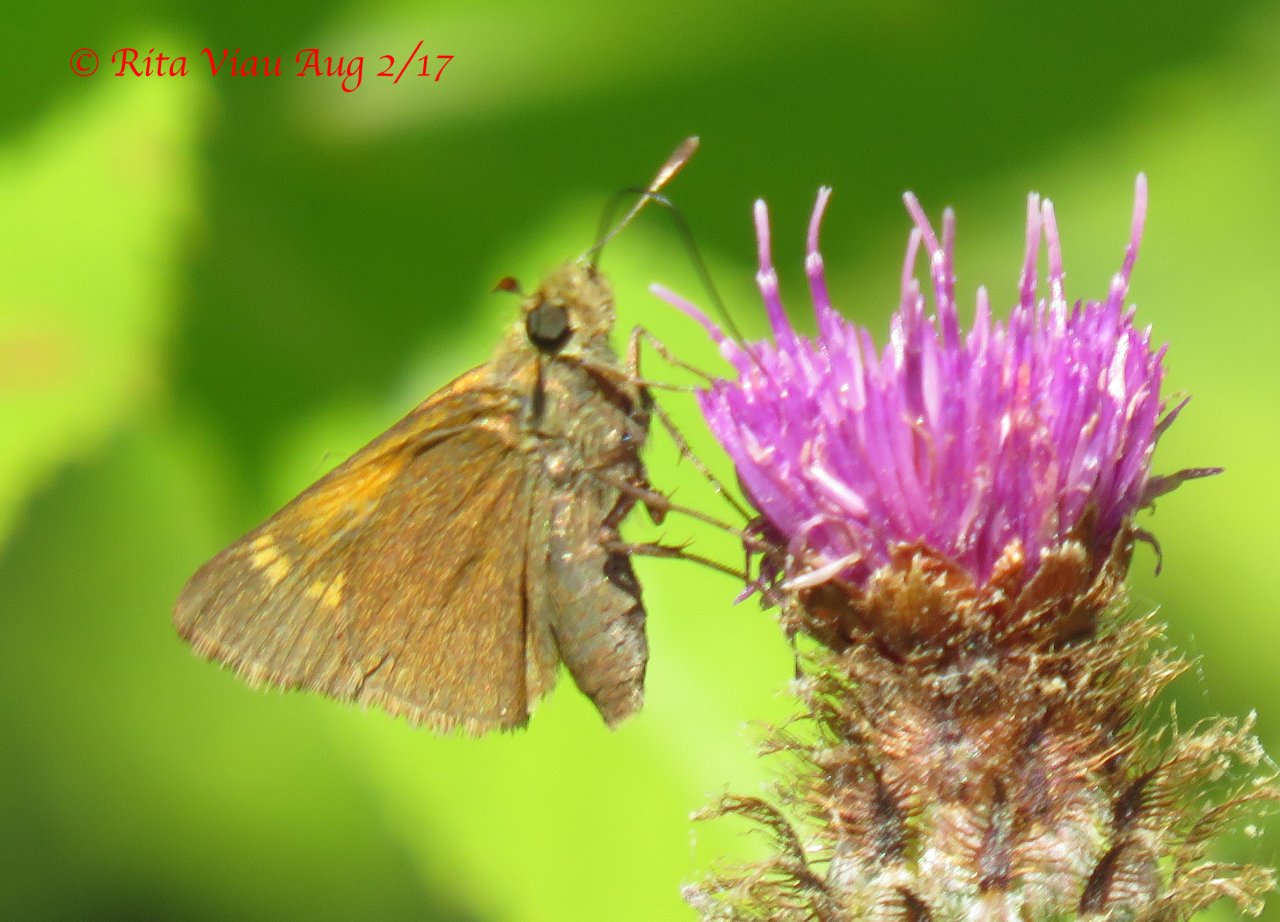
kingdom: Animalia
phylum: Arthropoda
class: Insecta
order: Lepidoptera
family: Hesperiidae
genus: Polites
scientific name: Polites themistocles
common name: Tawny-edged Skipper
